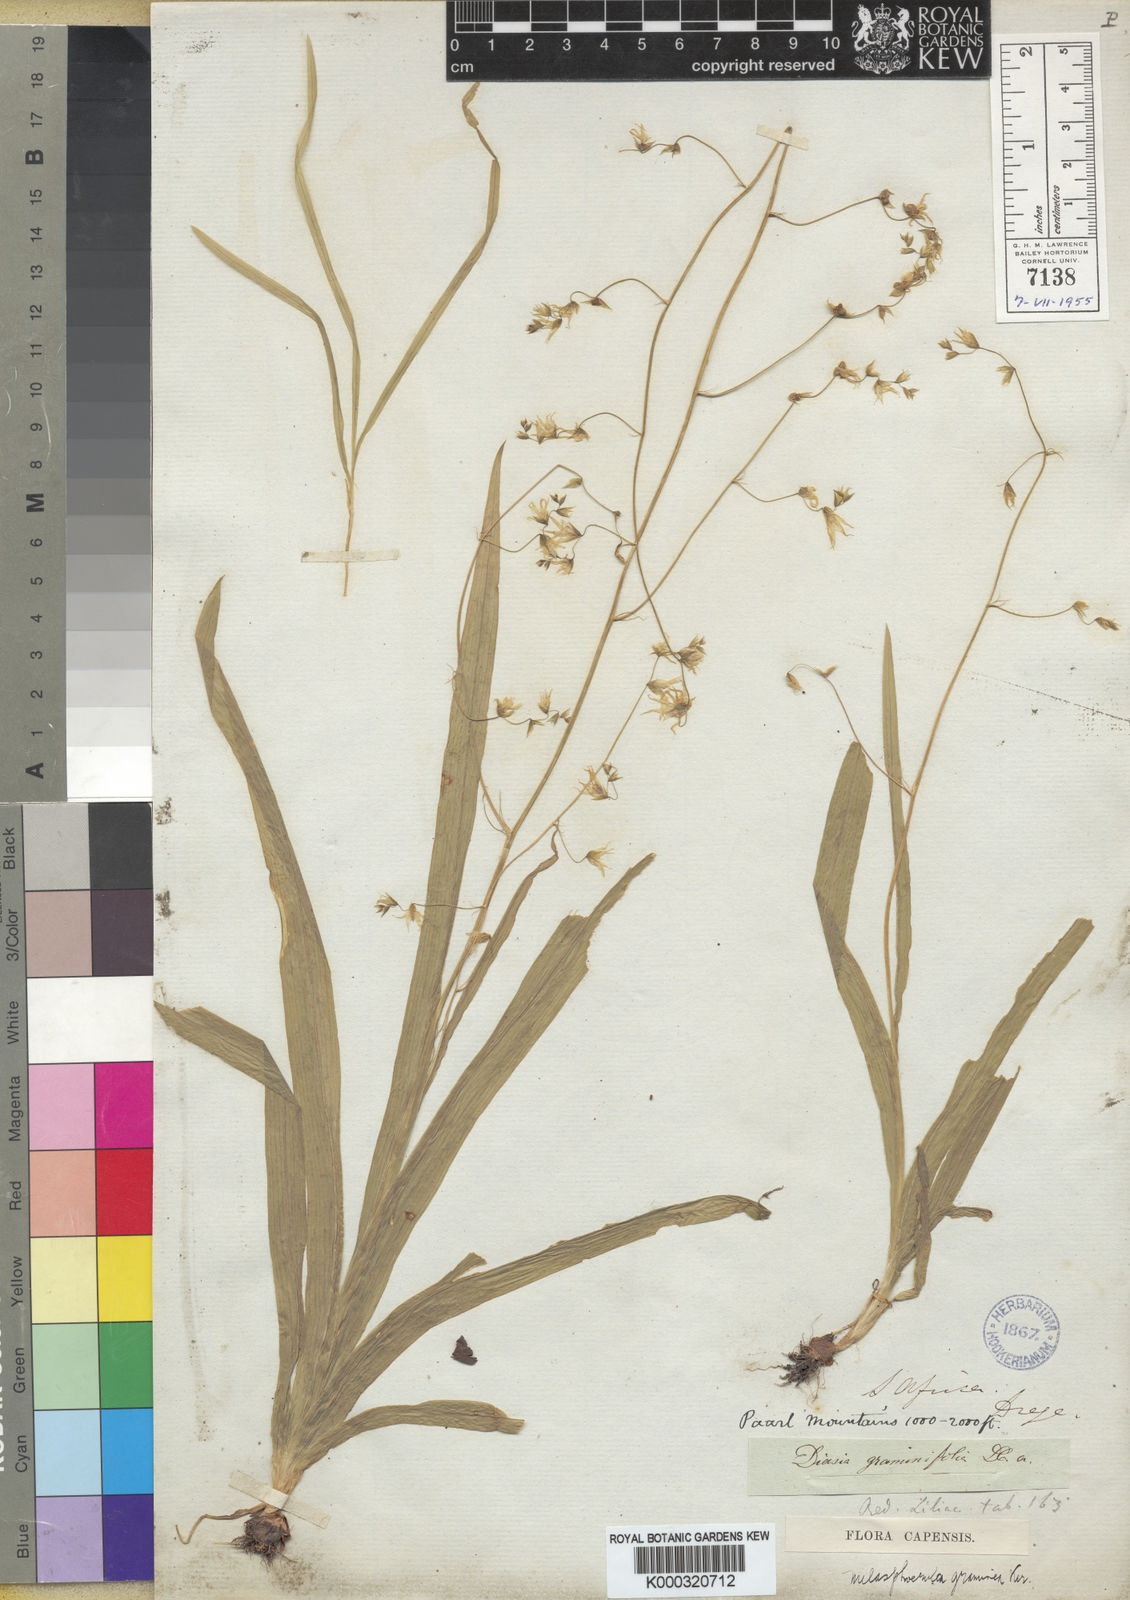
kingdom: Plantae
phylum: Tracheophyta
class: Liliopsida
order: Asparagales
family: Iridaceae
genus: Melasphaerula
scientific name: Melasphaerula graminea
